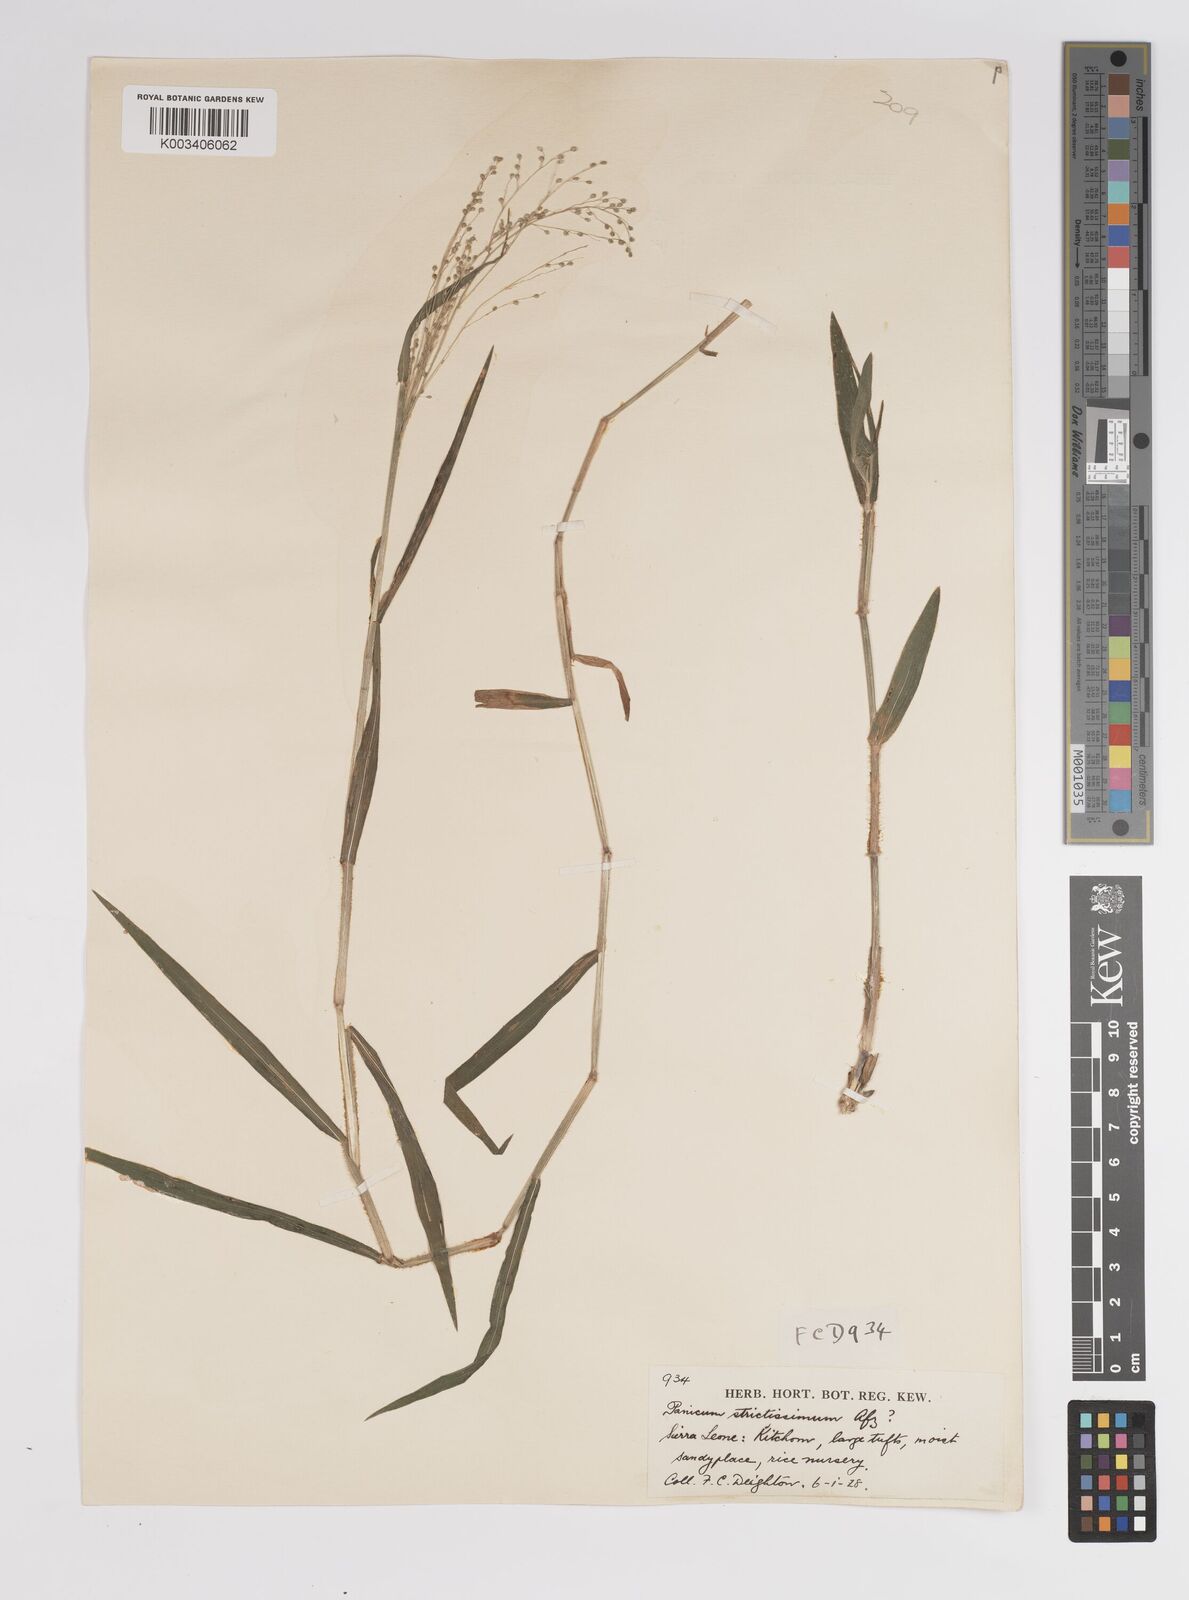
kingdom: Plantae
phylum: Tracheophyta
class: Liliopsida
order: Poales
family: Poaceae
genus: Panicum
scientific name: Panicum eickii
